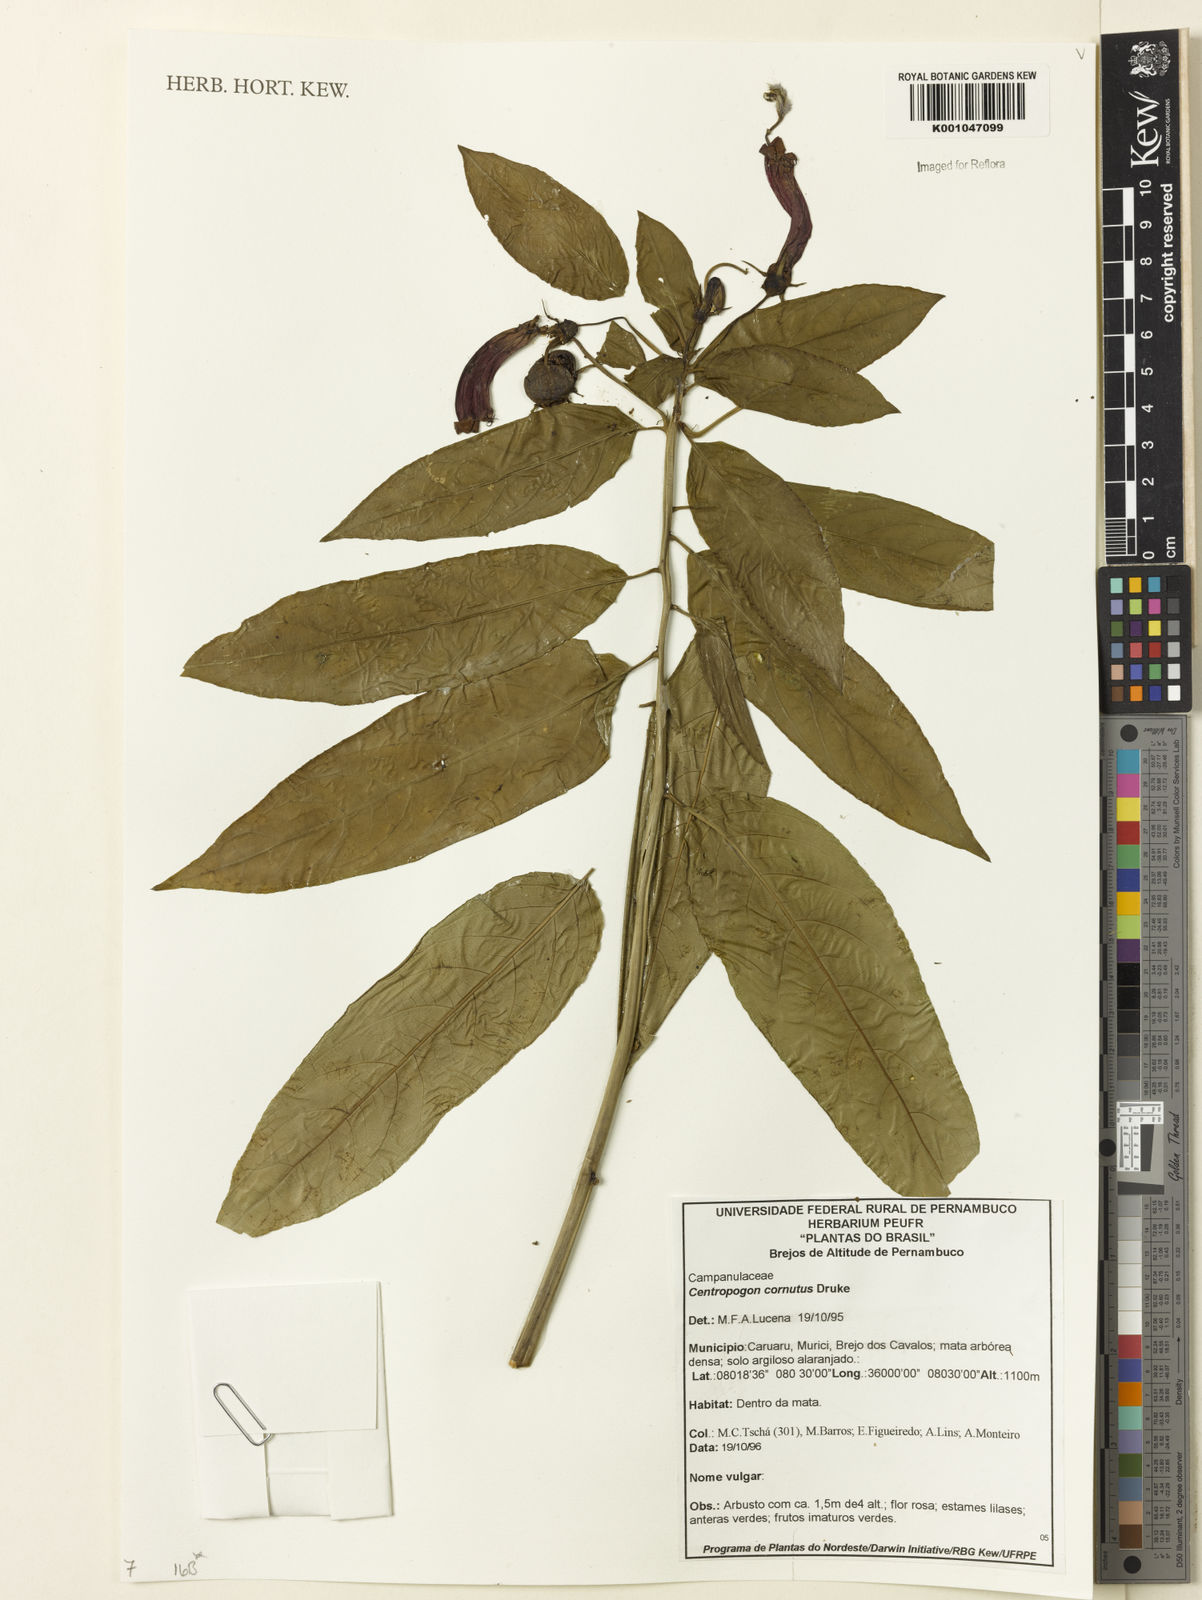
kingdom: Plantae
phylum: Tracheophyta
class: Magnoliopsida
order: Asterales
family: Campanulaceae
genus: Centropogon
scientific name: Centropogon cornutus
